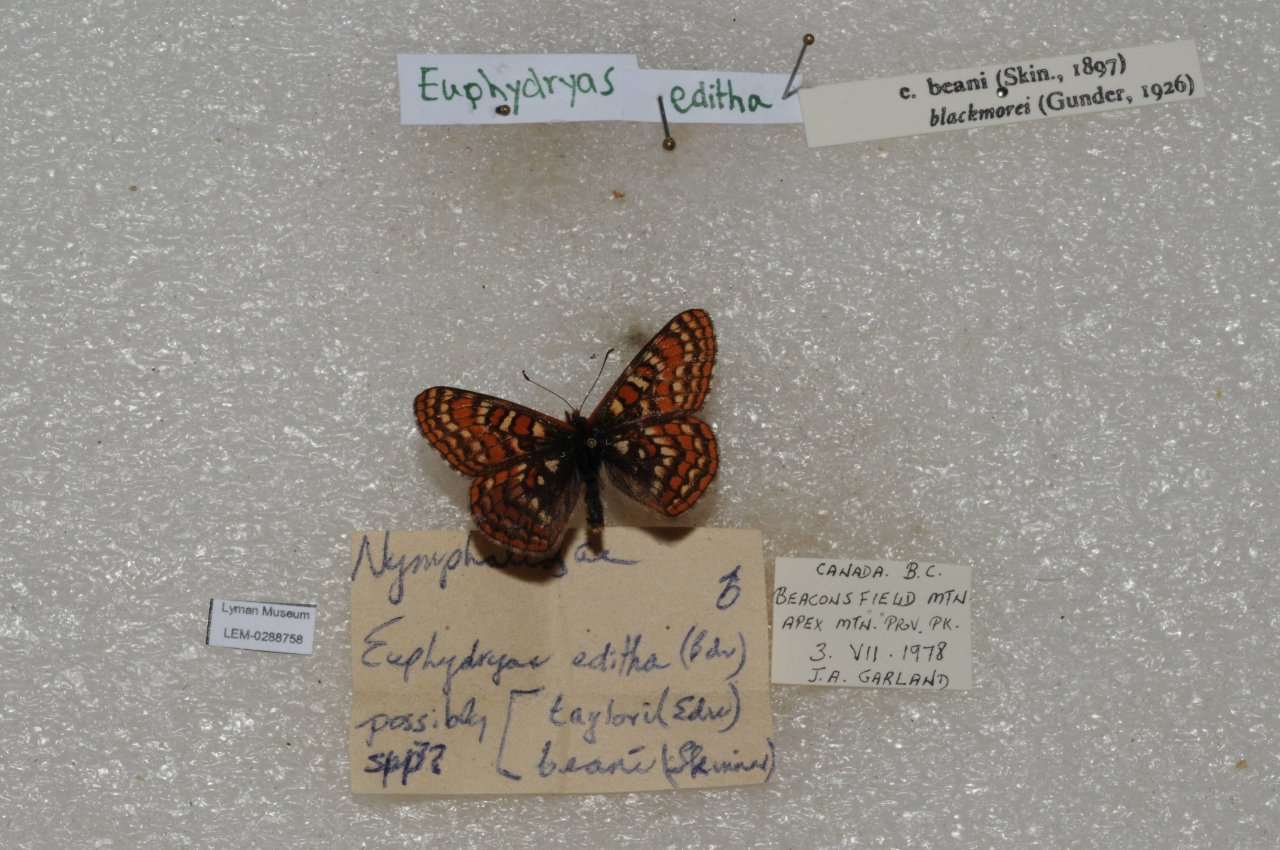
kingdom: Animalia
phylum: Arthropoda
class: Insecta
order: Lepidoptera
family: Nymphalidae
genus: Occidryas
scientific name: Occidryas editha
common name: Edith's Checkerspot
